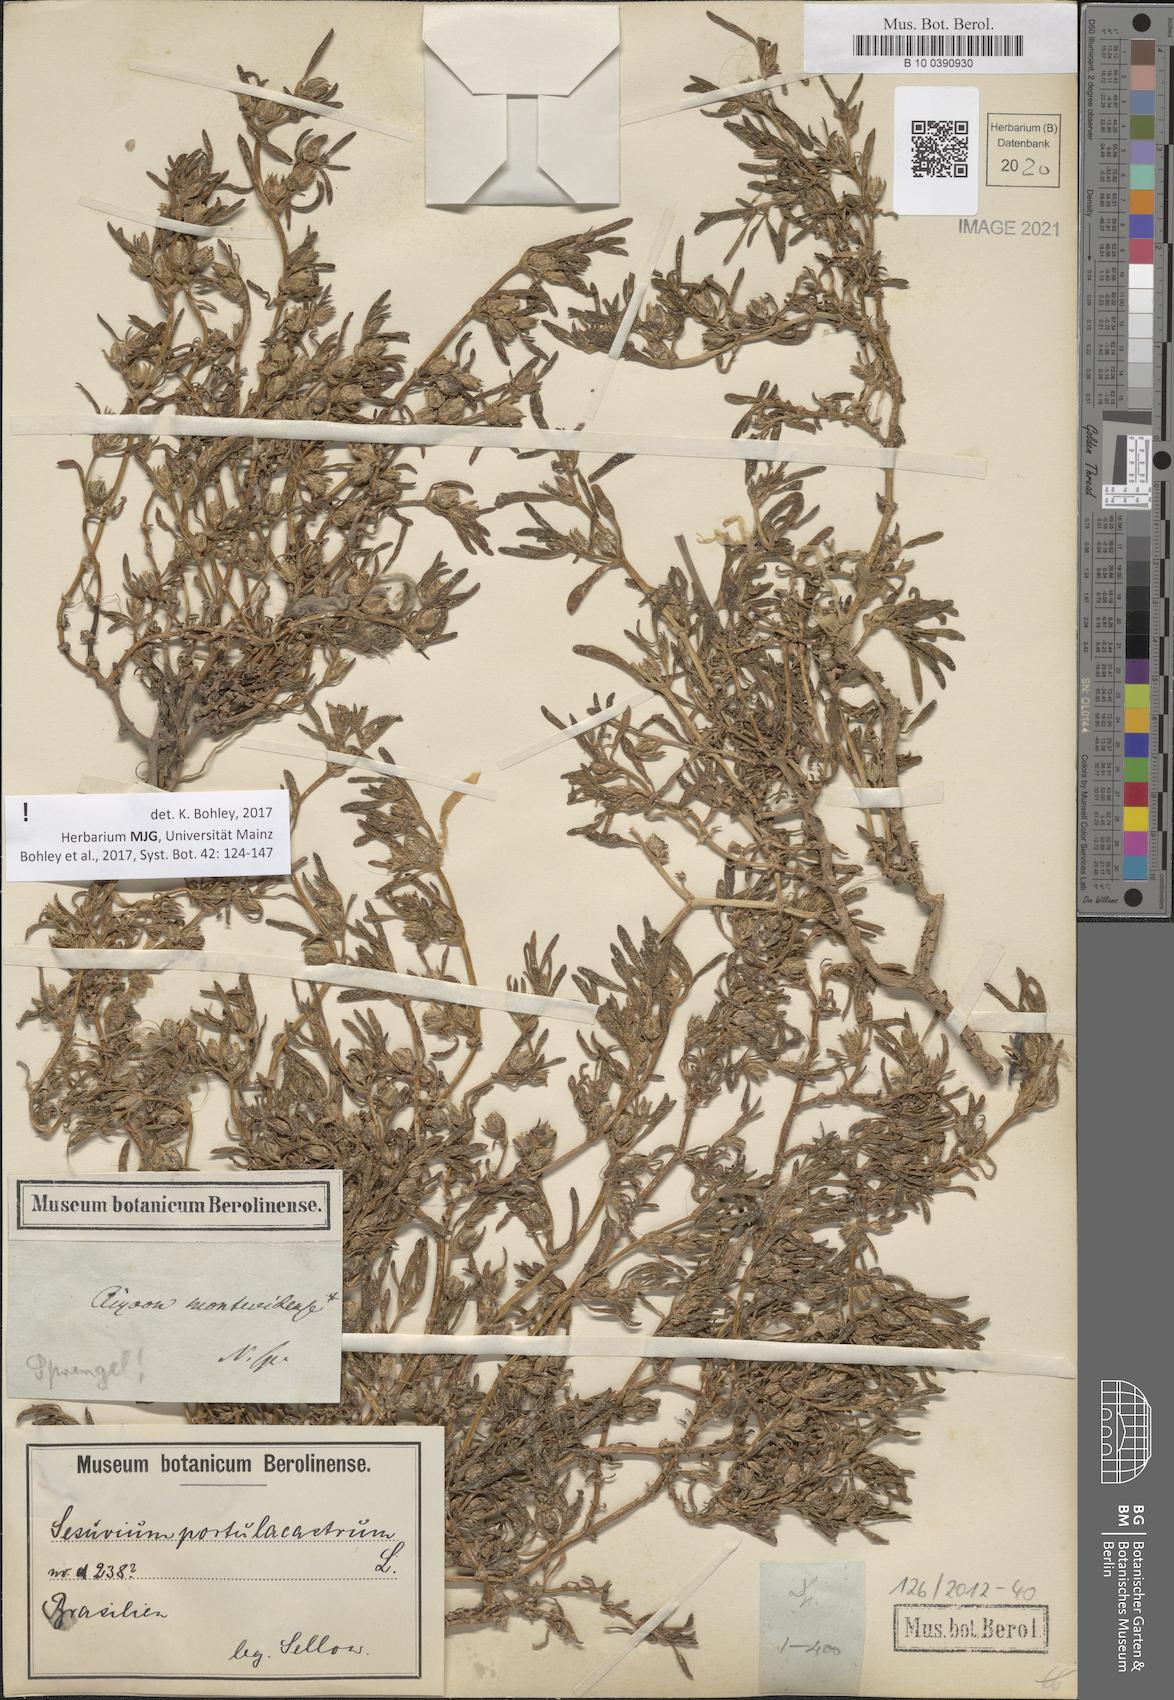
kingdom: Plantae
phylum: Tracheophyta
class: Magnoliopsida
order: Caryophyllales
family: Aizoaceae
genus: Sesuvium
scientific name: Sesuvium portulacastrum
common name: Sea-purslane
